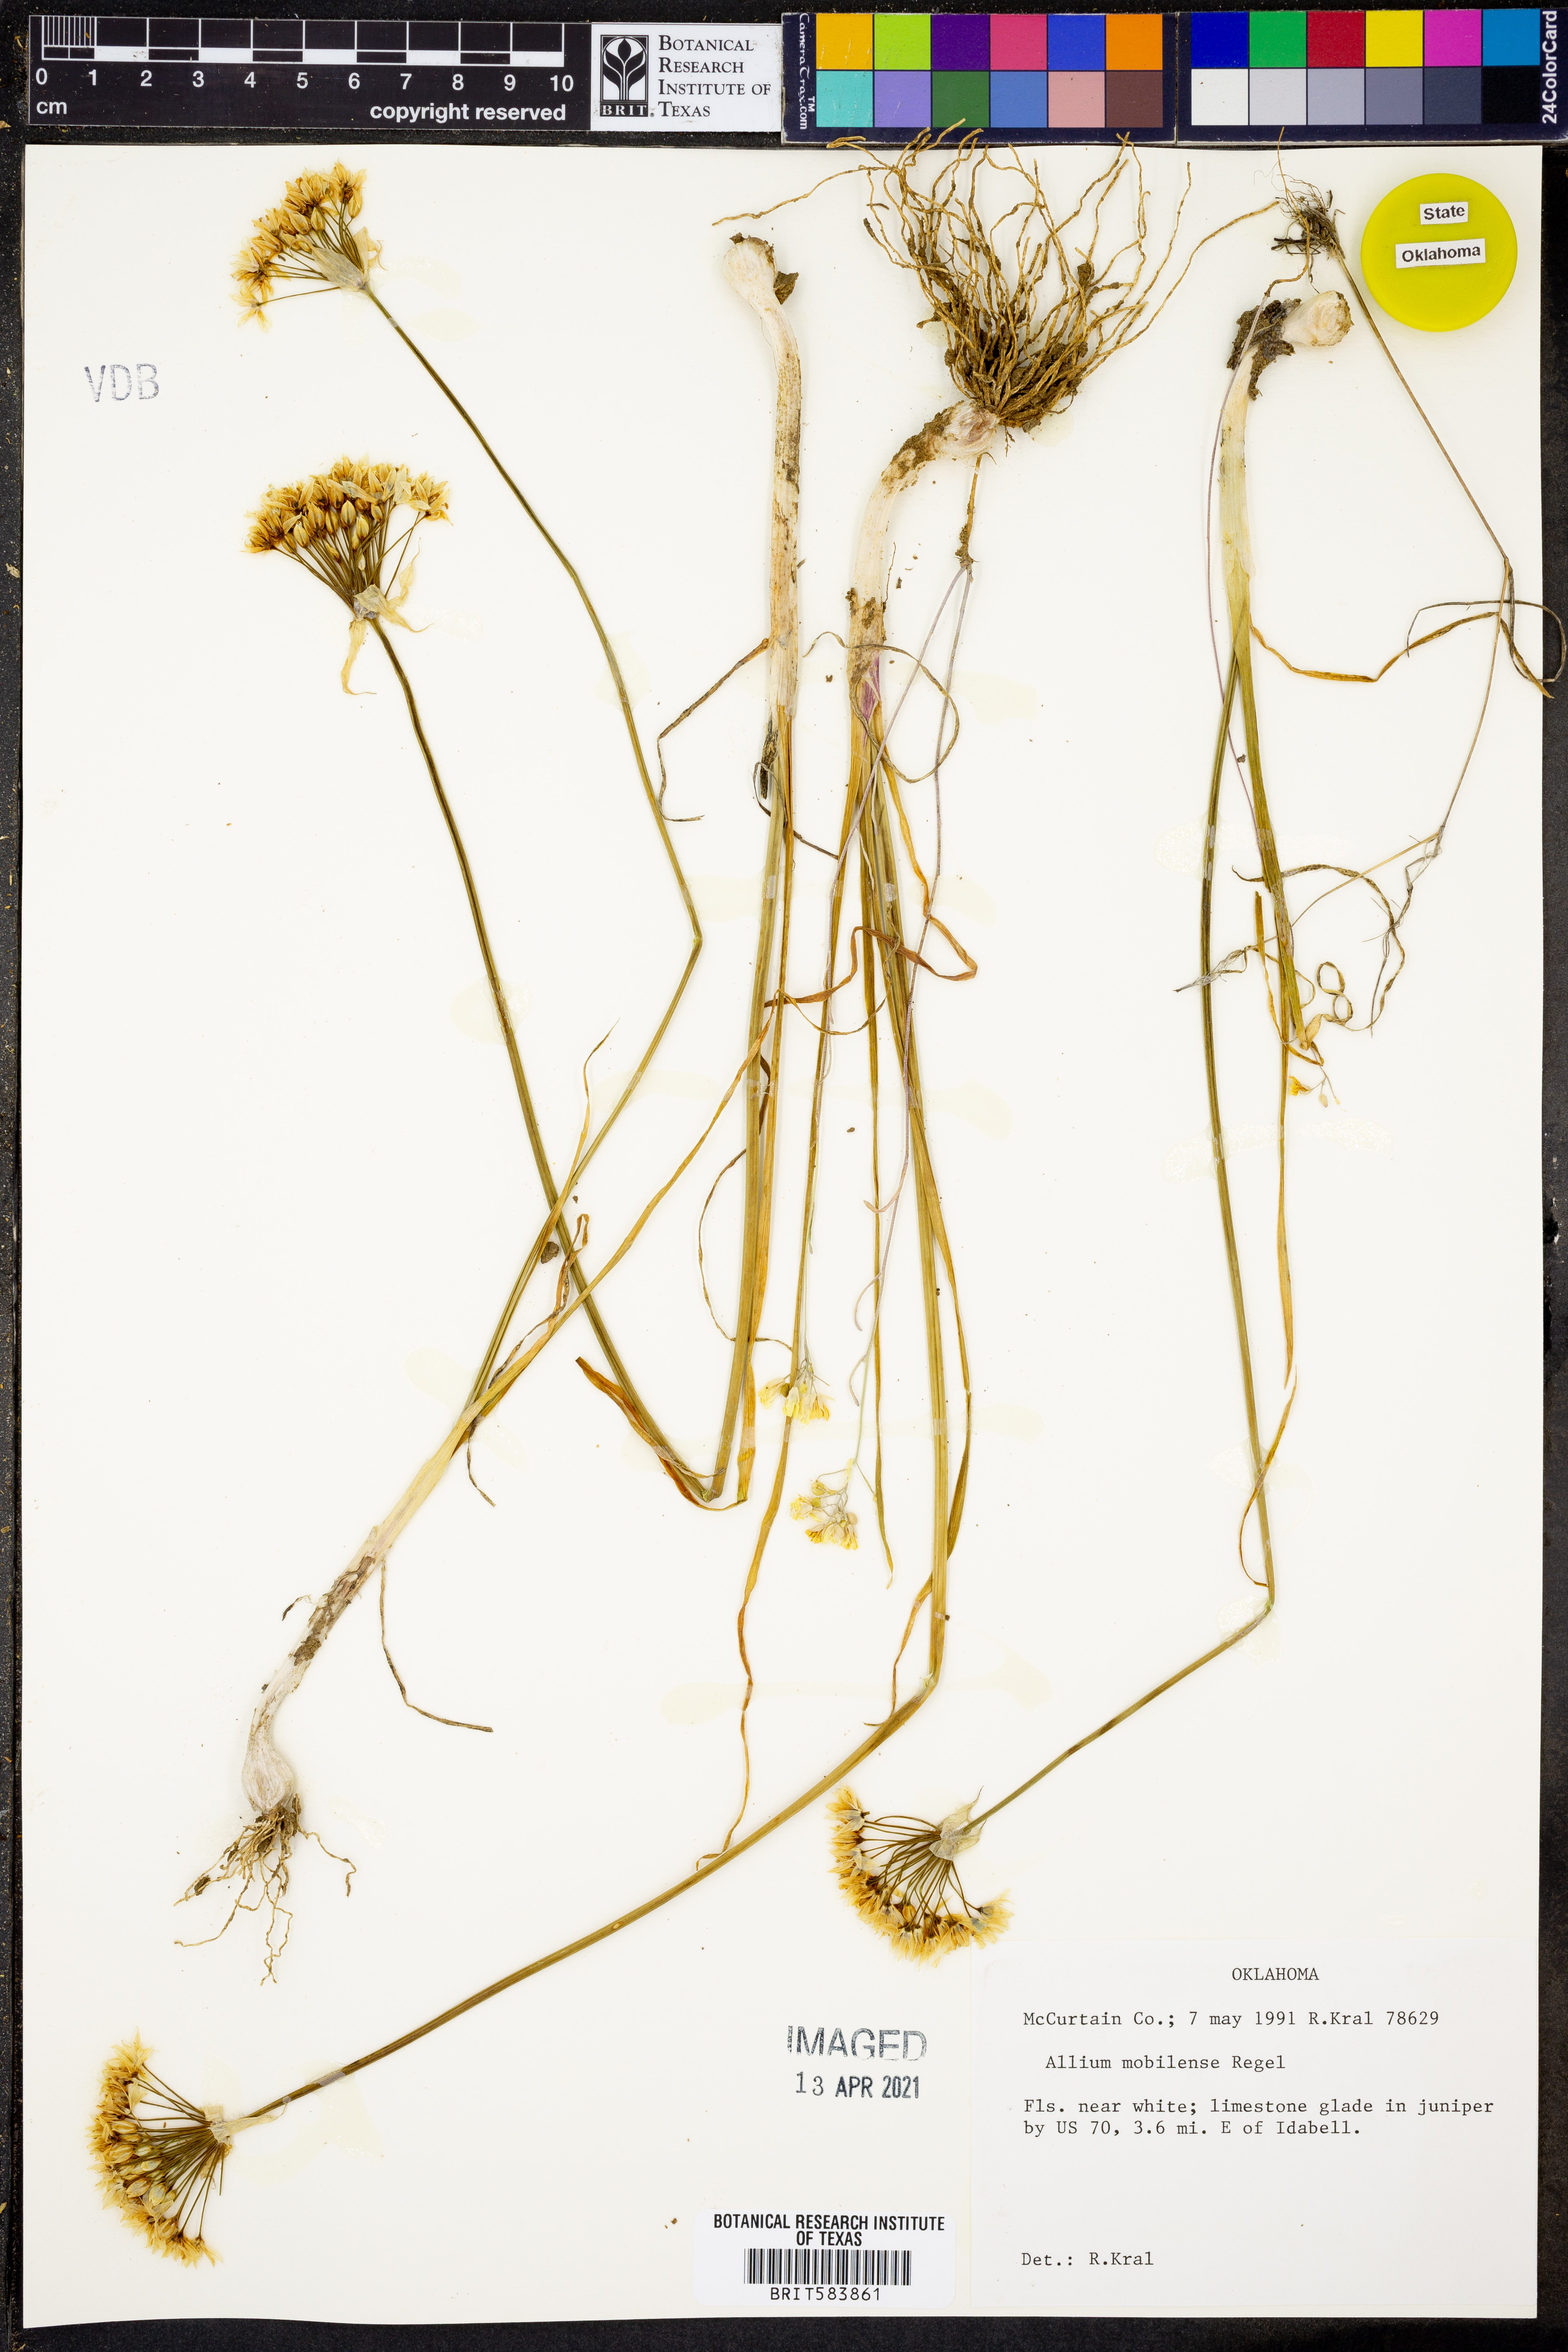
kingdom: Plantae
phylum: Tracheophyta
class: Liliopsida
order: Asparagales
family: Amaryllidaceae
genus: Allium
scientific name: Allium canadense
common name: Meadow garlic
